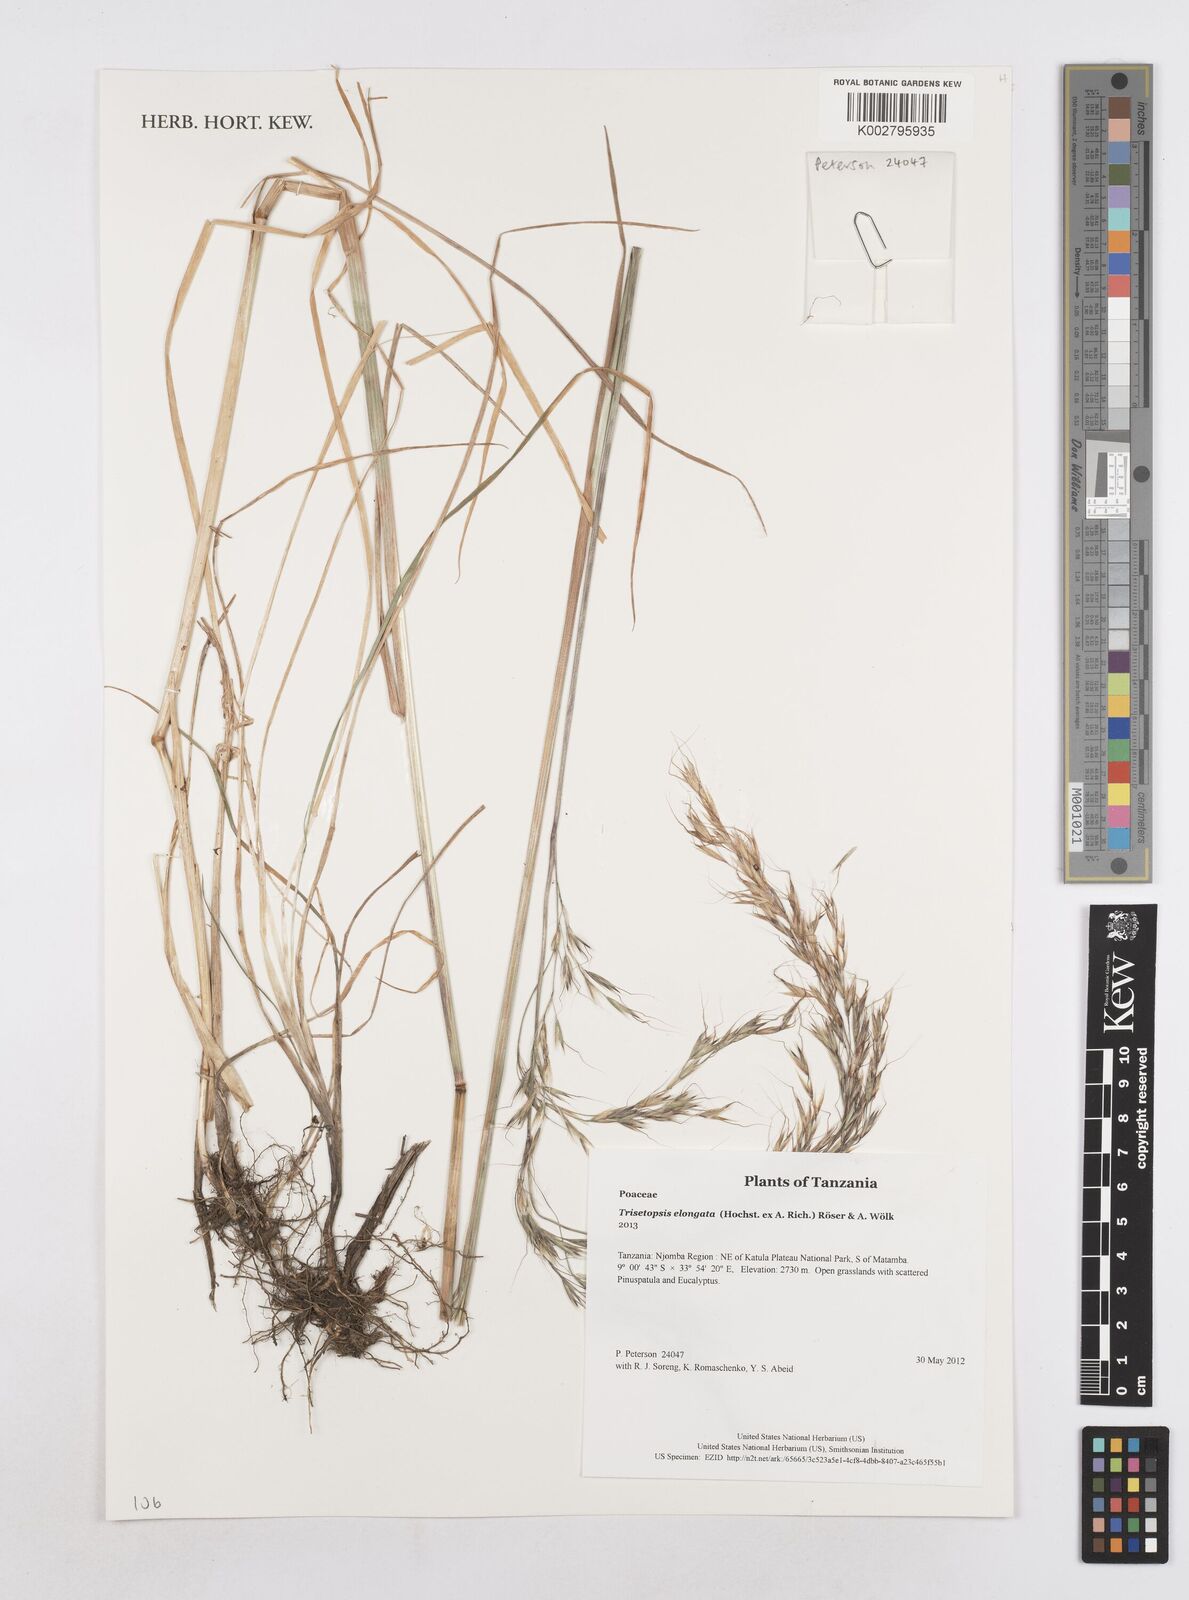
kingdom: Plantae
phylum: Tracheophyta
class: Liliopsida
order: Poales
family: Poaceae
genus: Trisetopsis
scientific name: Trisetopsis elongata
